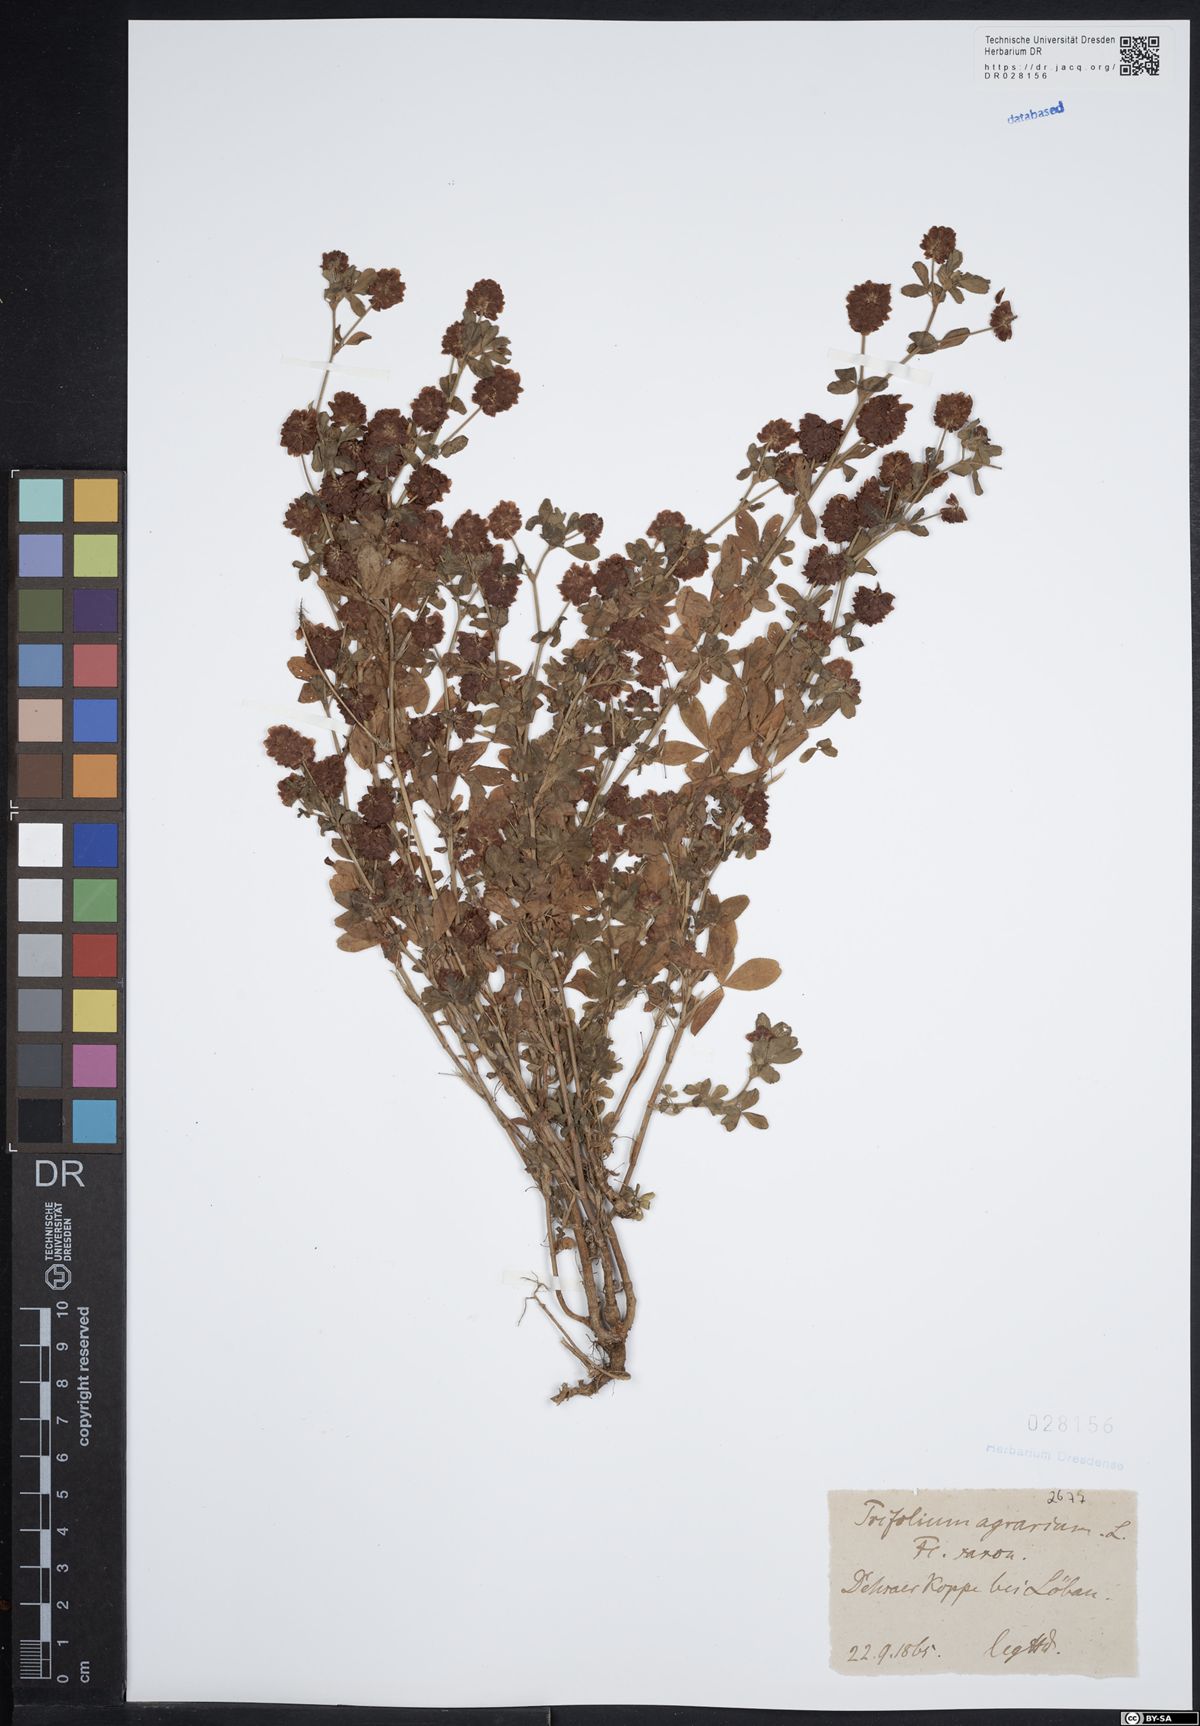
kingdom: Plantae
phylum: Tracheophyta
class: Magnoliopsida
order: Fabales
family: Fabaceae
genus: Trifolium
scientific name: Trifolium aureum
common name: Golden clover
